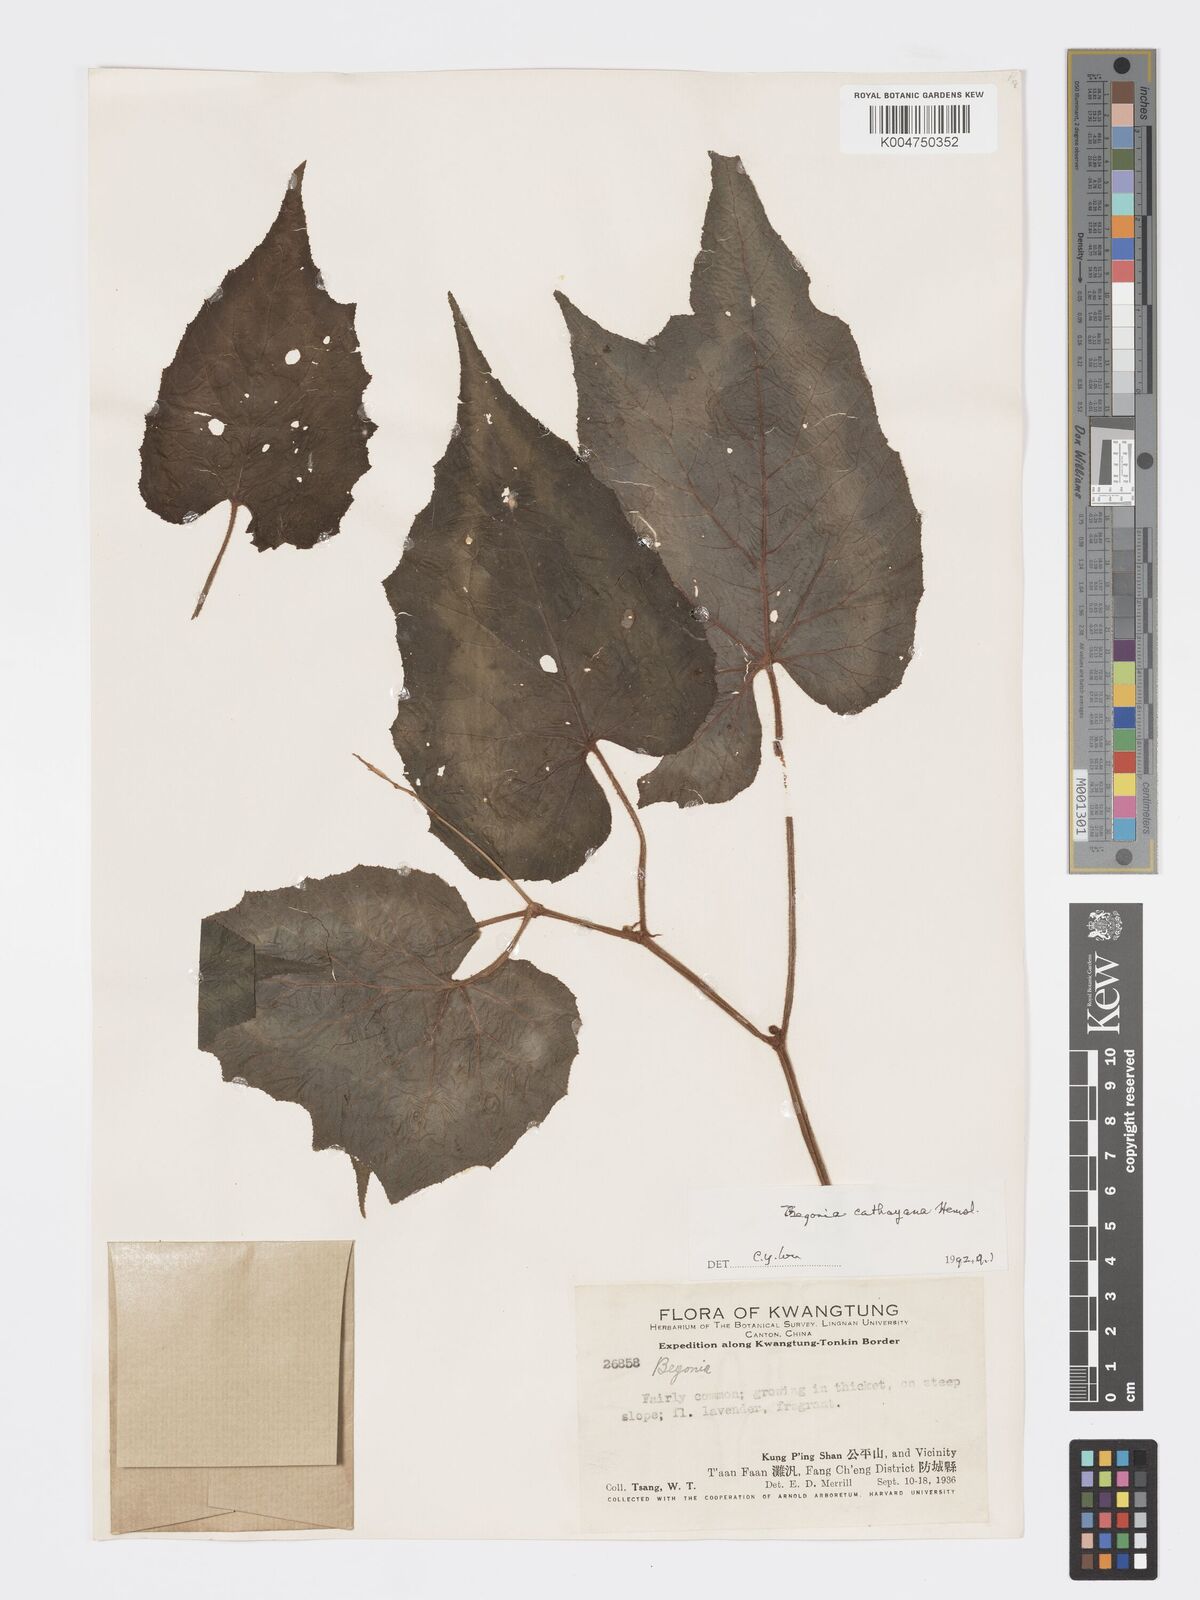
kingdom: Plantae
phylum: Tracheophyta
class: Magnoliopsida
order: Cucurbitales
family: Begoniaceae
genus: Begonia
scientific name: Begonia cathayana
